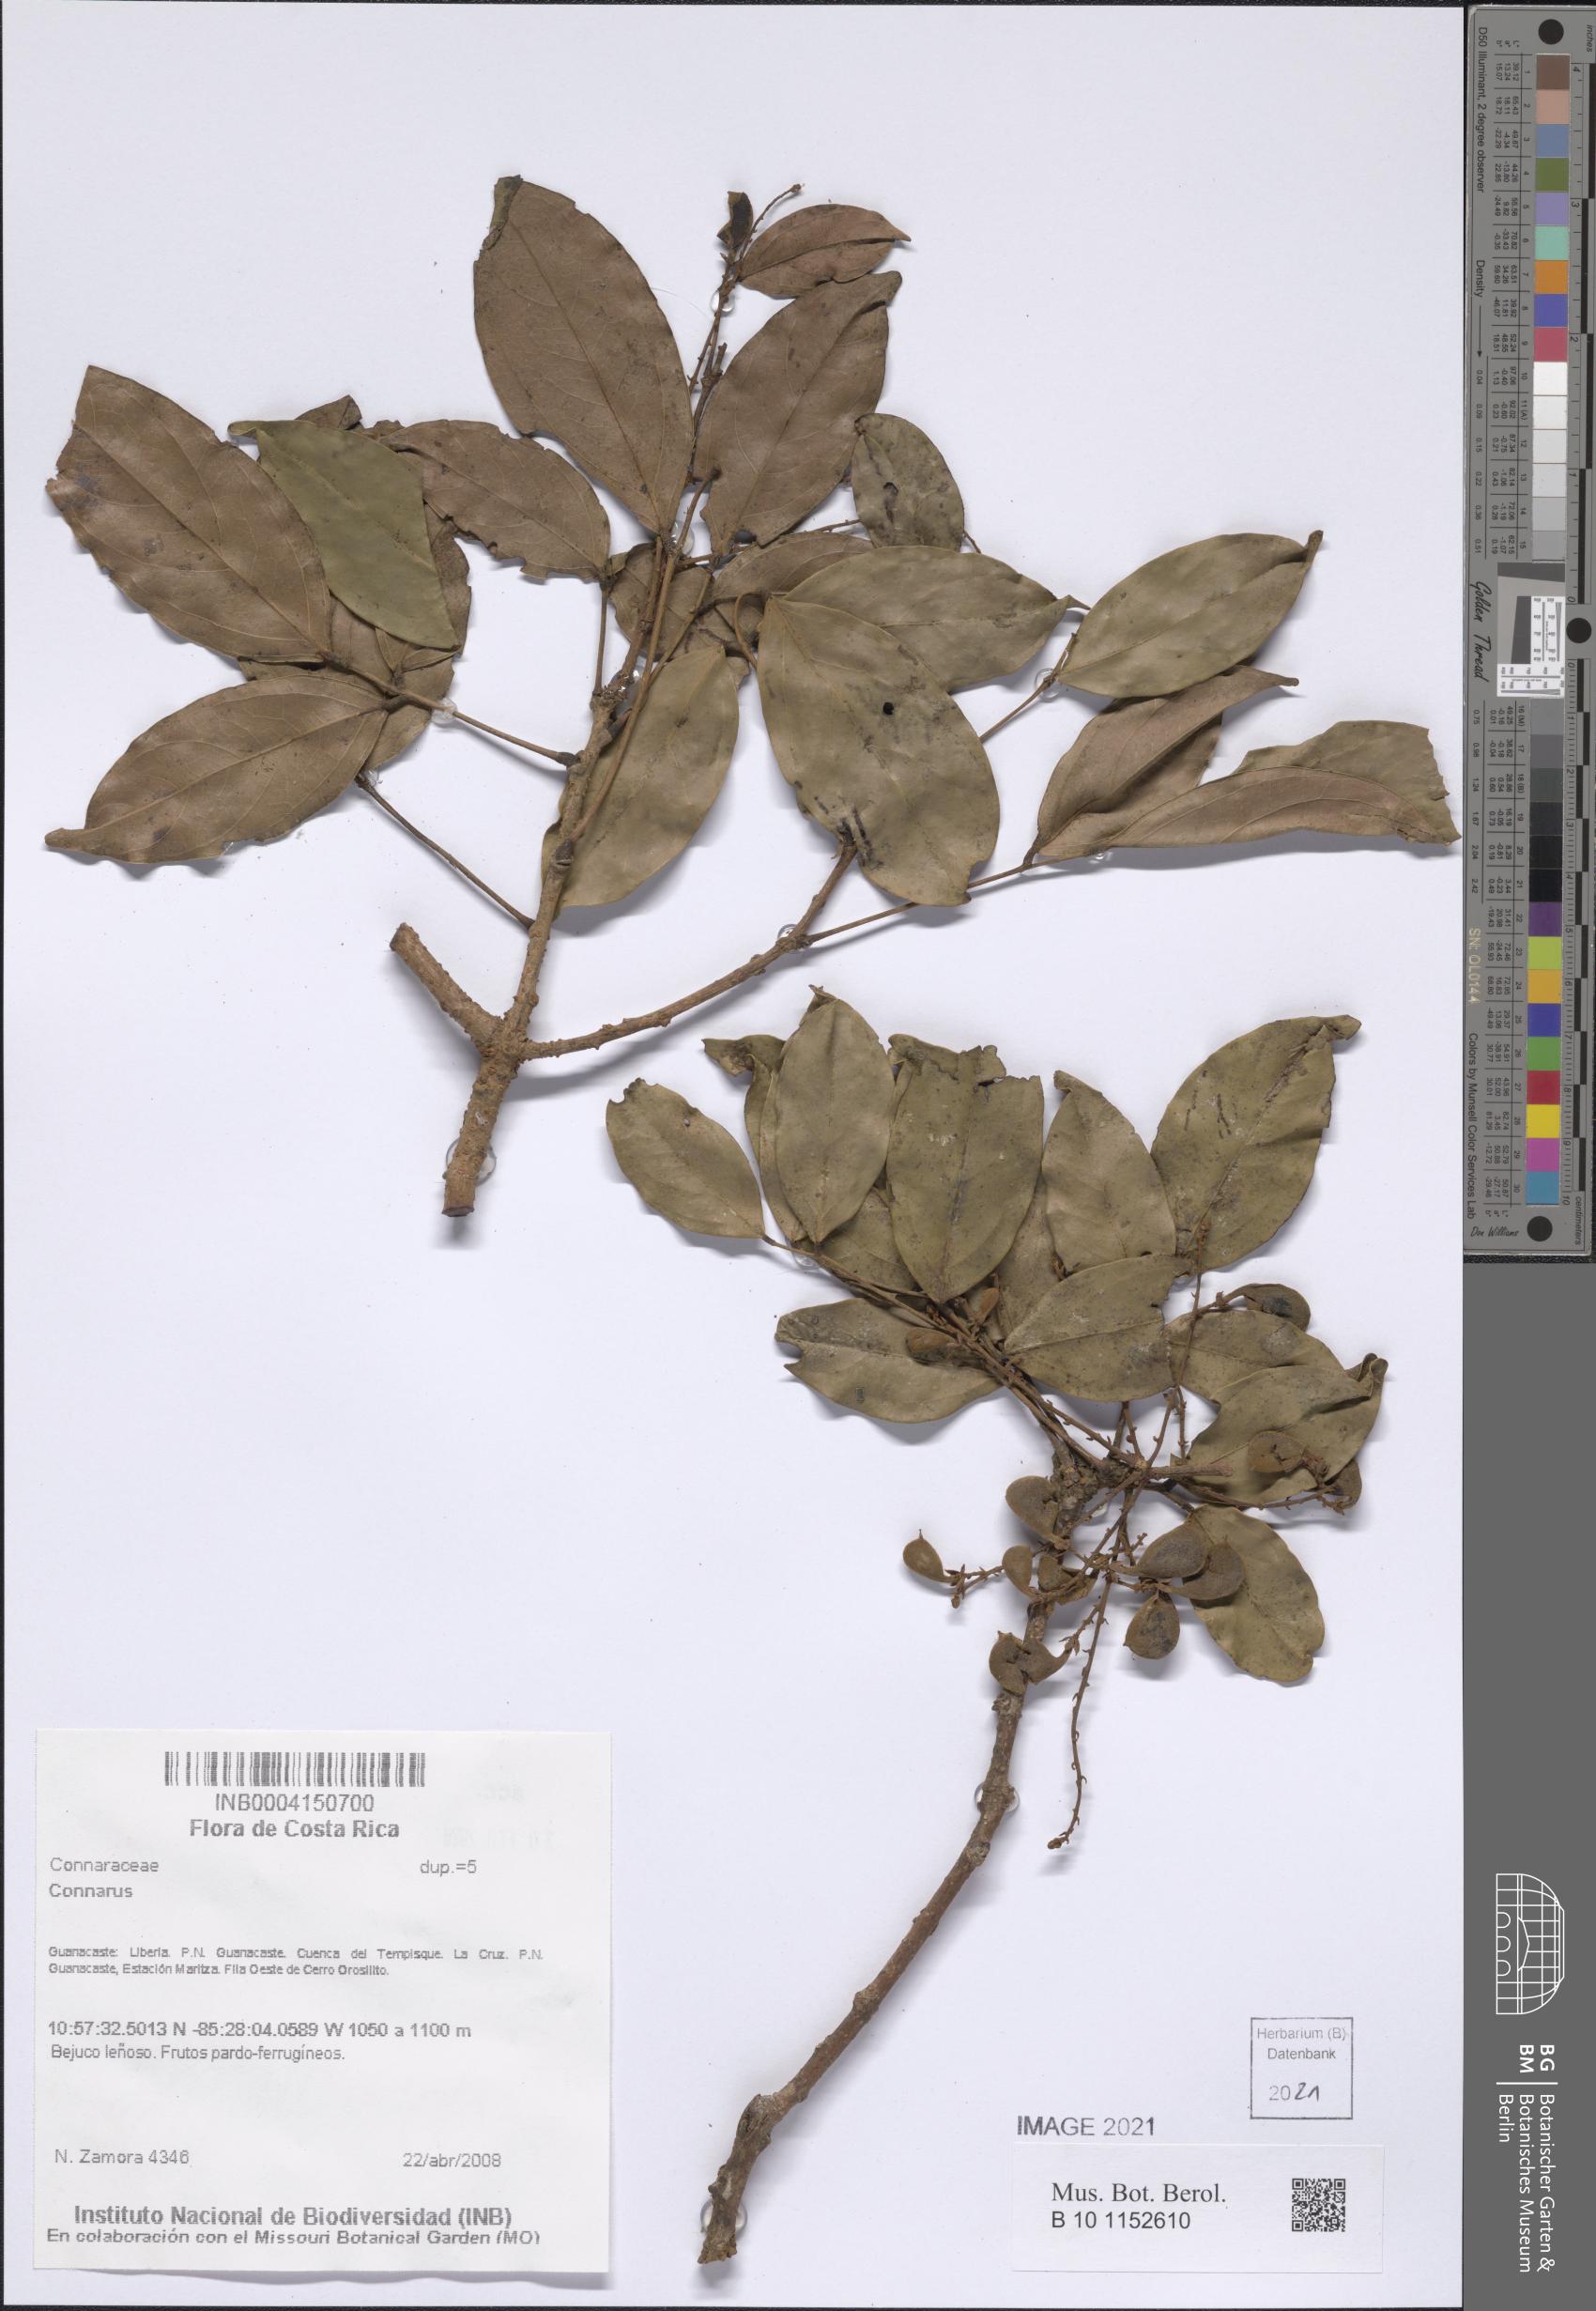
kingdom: Plantae
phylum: Tracheophyta
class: Magnoliopsida
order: Oxalidales
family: Connaraceae
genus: Connarus
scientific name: Connarus
